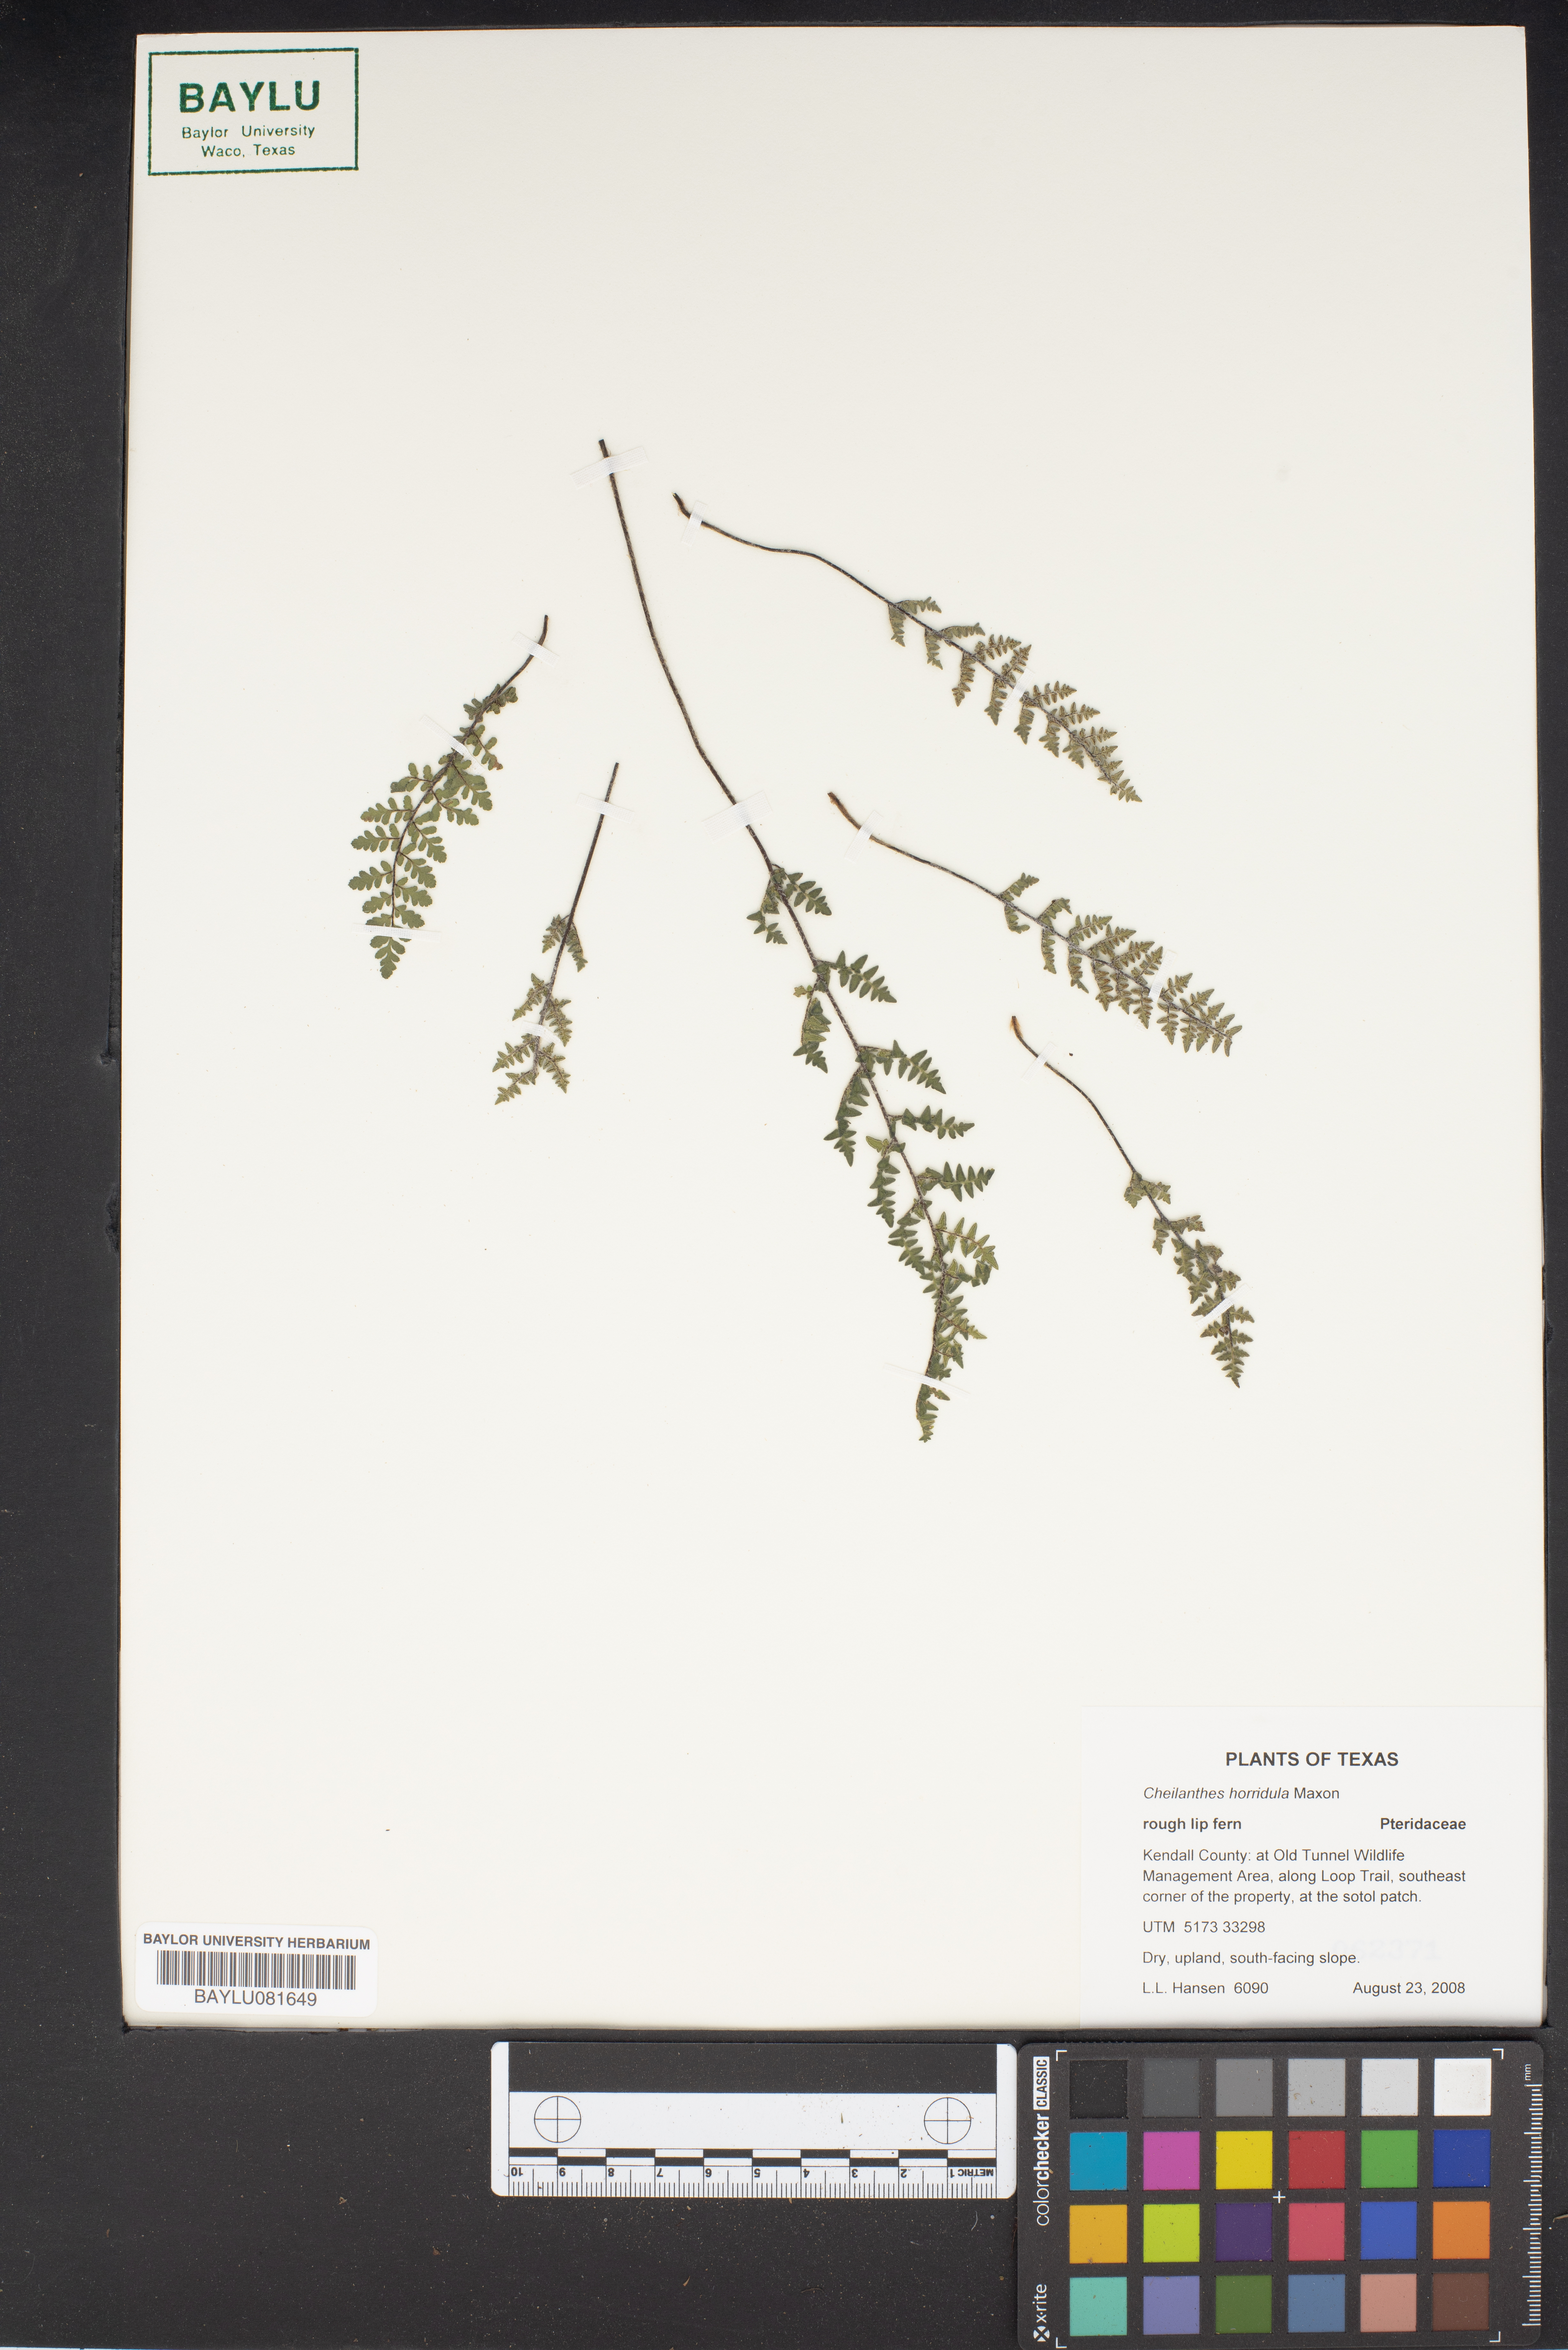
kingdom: Plantae
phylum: Tracheophyta
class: Polypodiopsida
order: Polypodiales
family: Pteridaceae
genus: Myriopteris
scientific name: Myriopteris scabra
